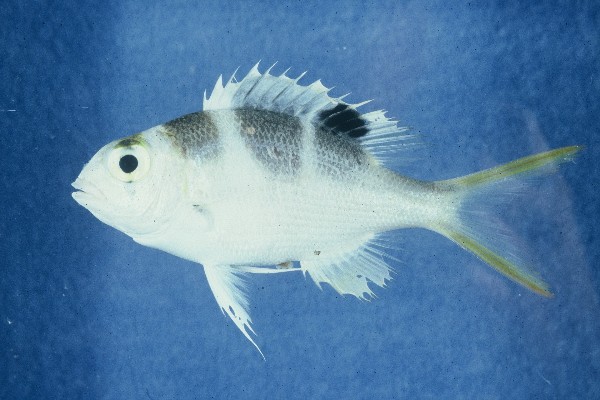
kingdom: Animalia
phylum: Chordata
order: Perciformes
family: Lethrinidae
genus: Monotaxis
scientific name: Monotaxis grandoculis
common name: Bigeye emperor
